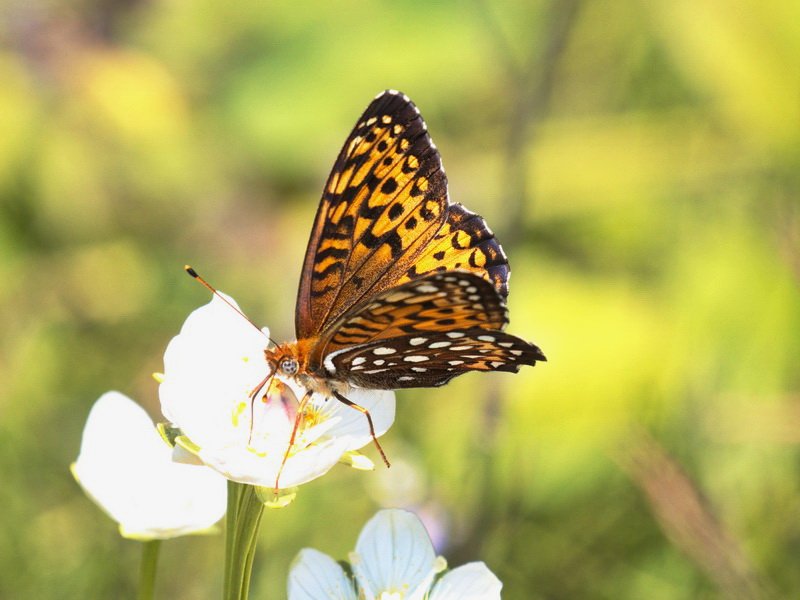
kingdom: Animalia
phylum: Arthropoda
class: Insecta
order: Lepidoptera
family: Nymphalidae
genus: Speyeria
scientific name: Speyeria atlantis
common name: Atlantis Fritillary
